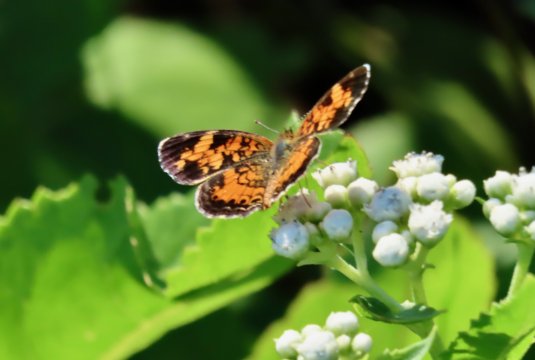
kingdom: Animalia
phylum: Arthropoda
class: Insecta
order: Lepidoptera
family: Nymphalidae
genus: Phyciodes
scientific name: Phyciodes tharos
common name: Pearl Crescent
